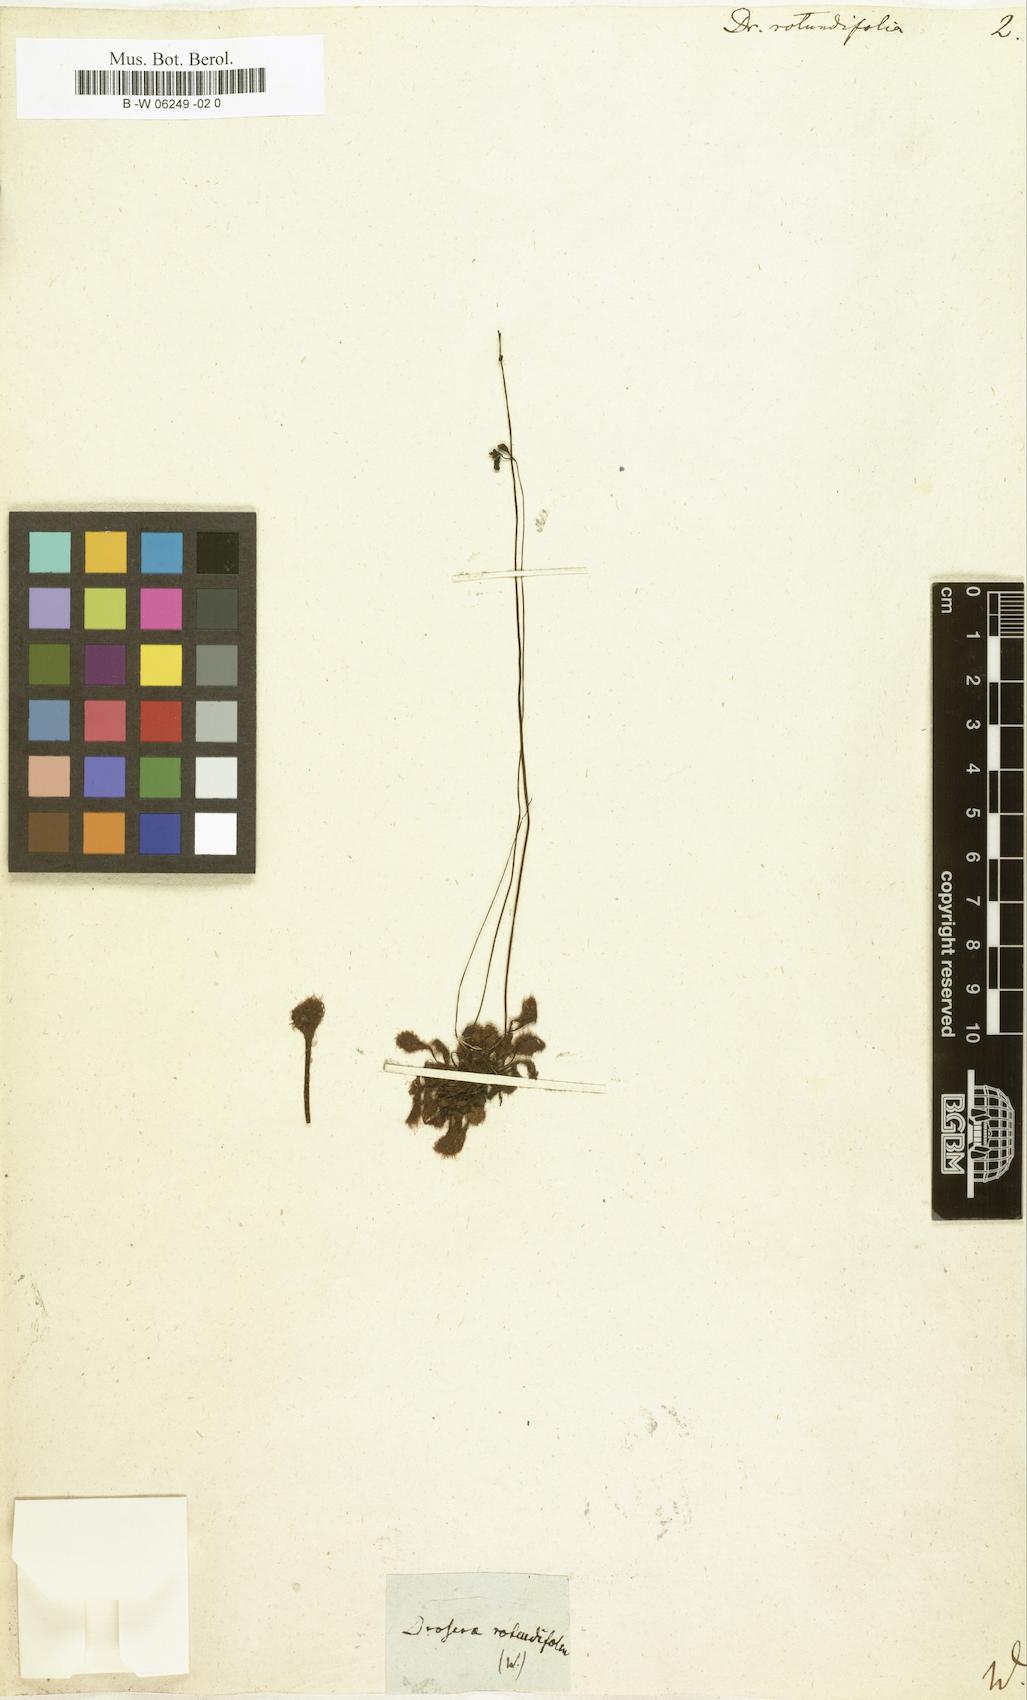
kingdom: Plantae
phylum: Tracheophyta
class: Magnoliopsida
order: Caryophyllales
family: Droseraceae
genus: Drosera
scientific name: Drosera rotundifolia
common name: Round-leaved sundew
